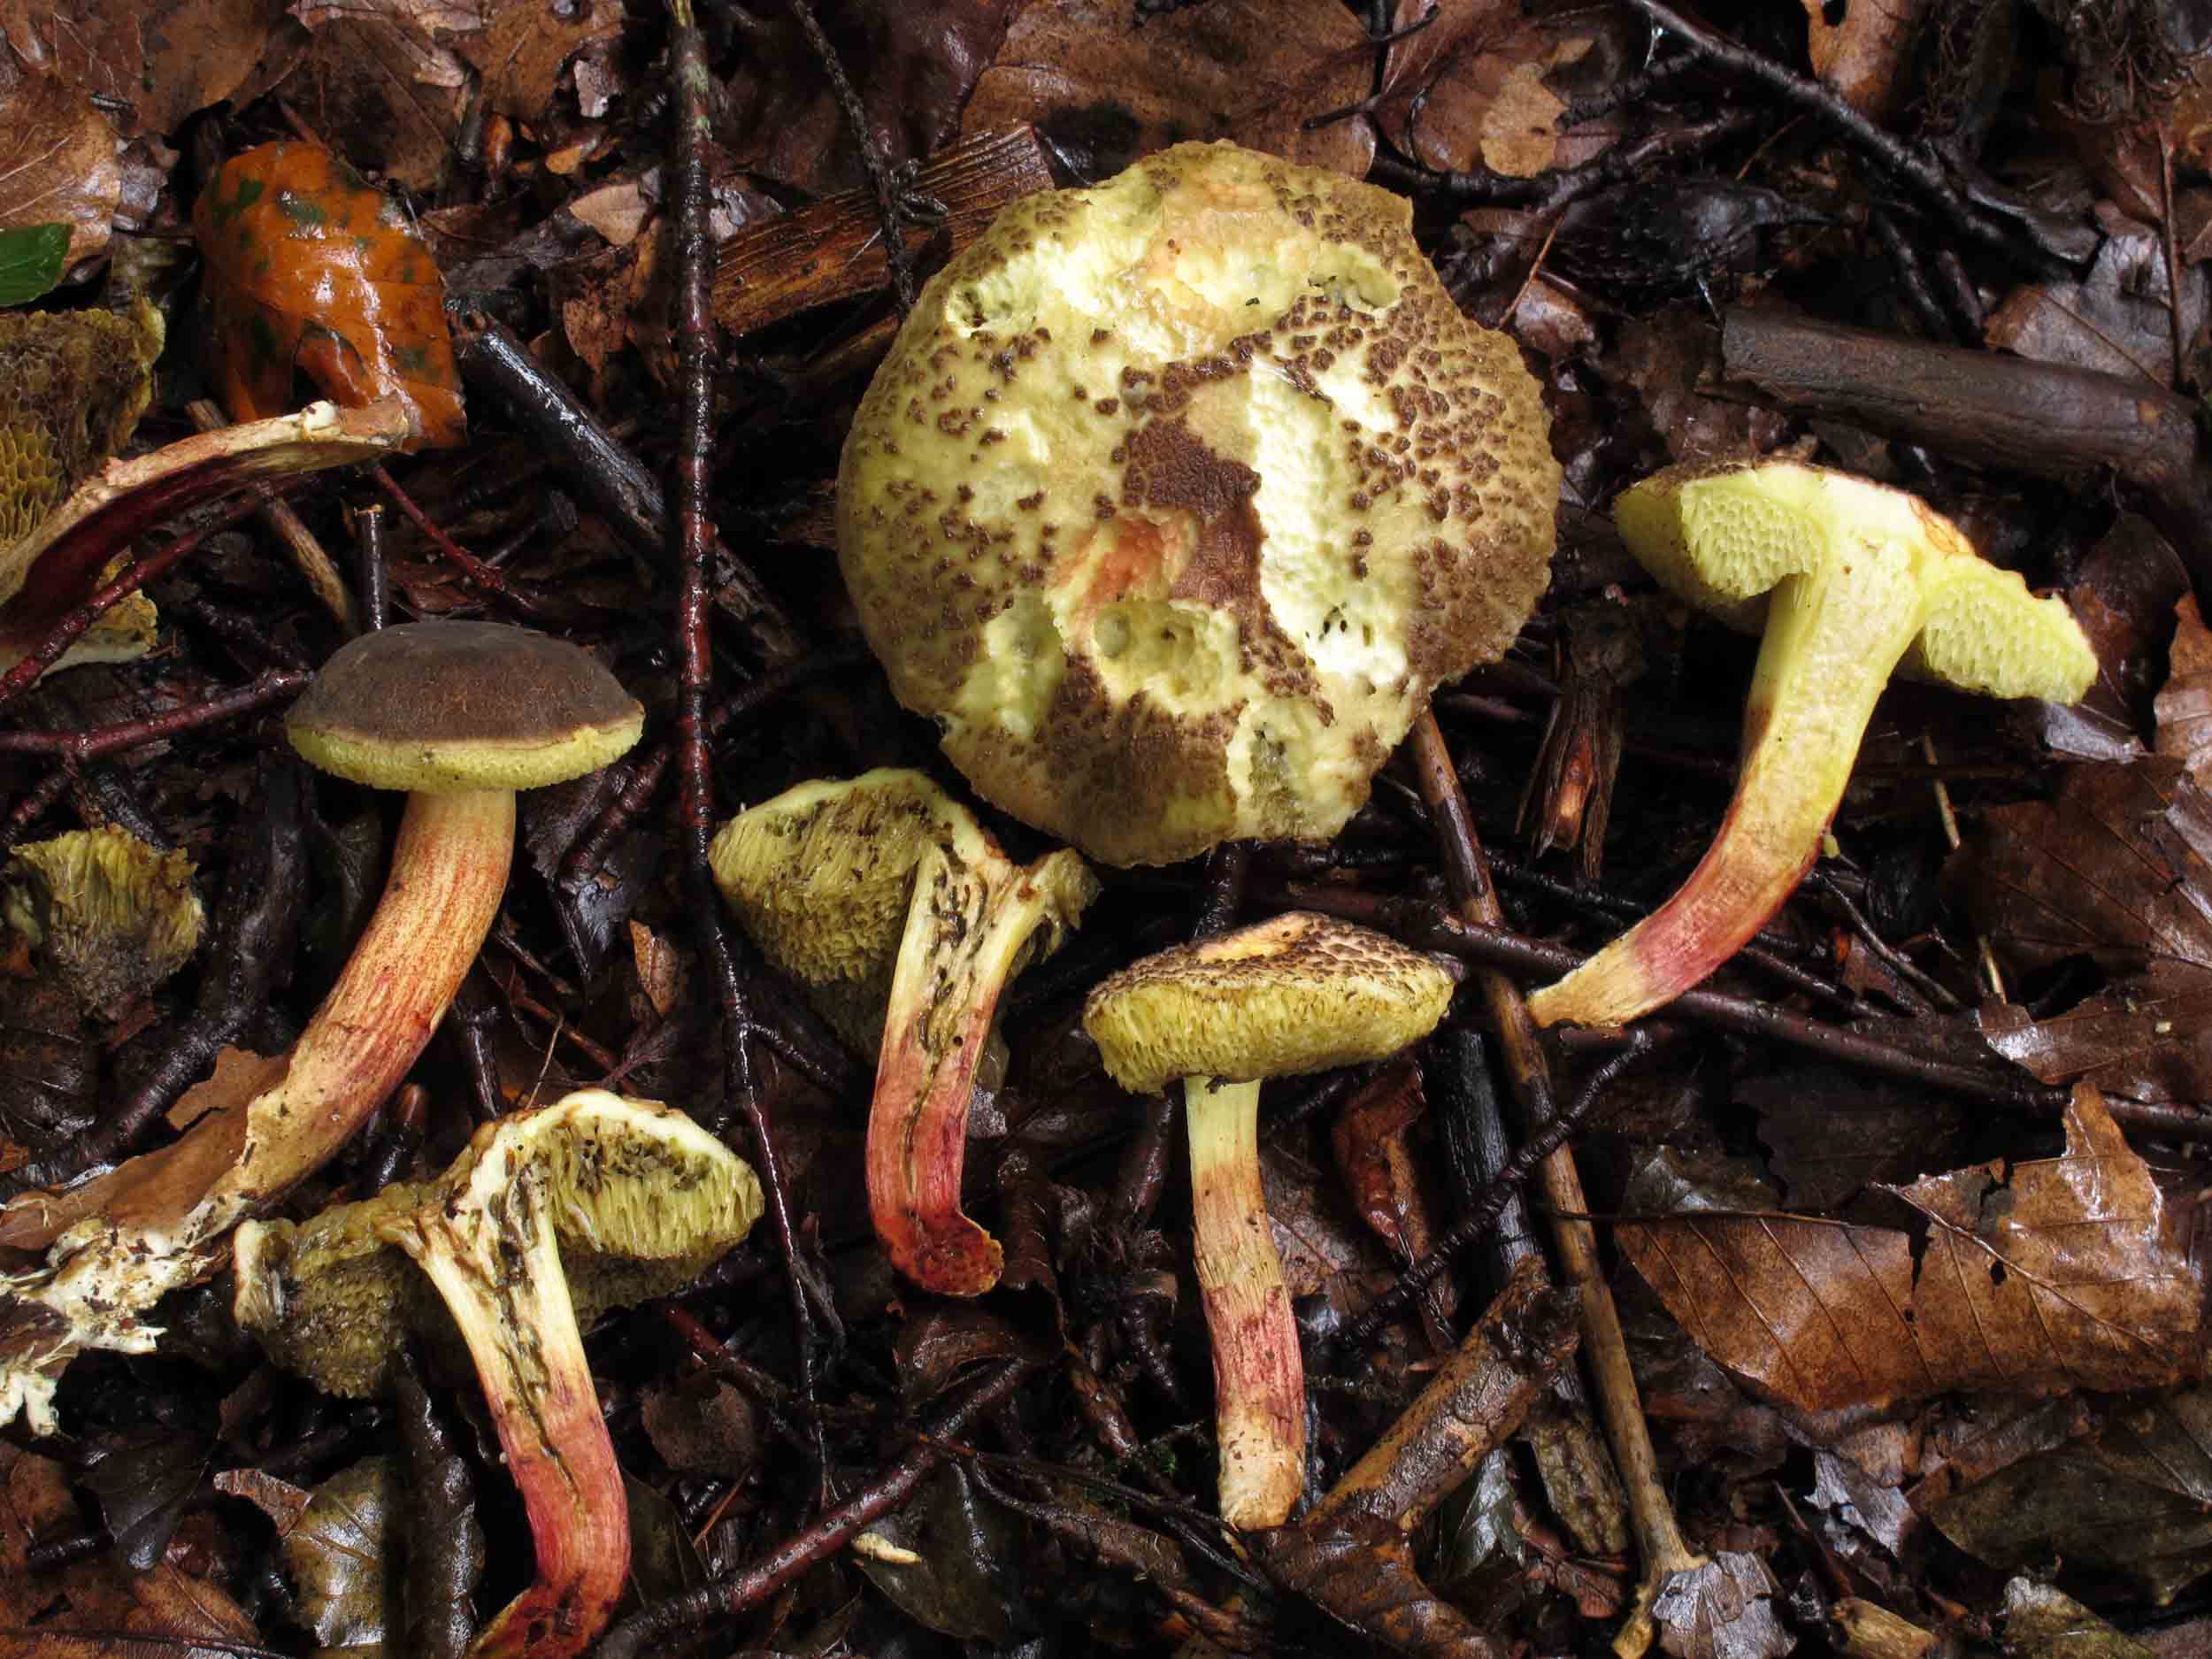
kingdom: Fungi
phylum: Basidiomycota
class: Agaricomycetes
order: Boletales
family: Boletaceae
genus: Xerocomellus
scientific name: Xerocomellus chrysenteron
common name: rødsprukken rørhat
